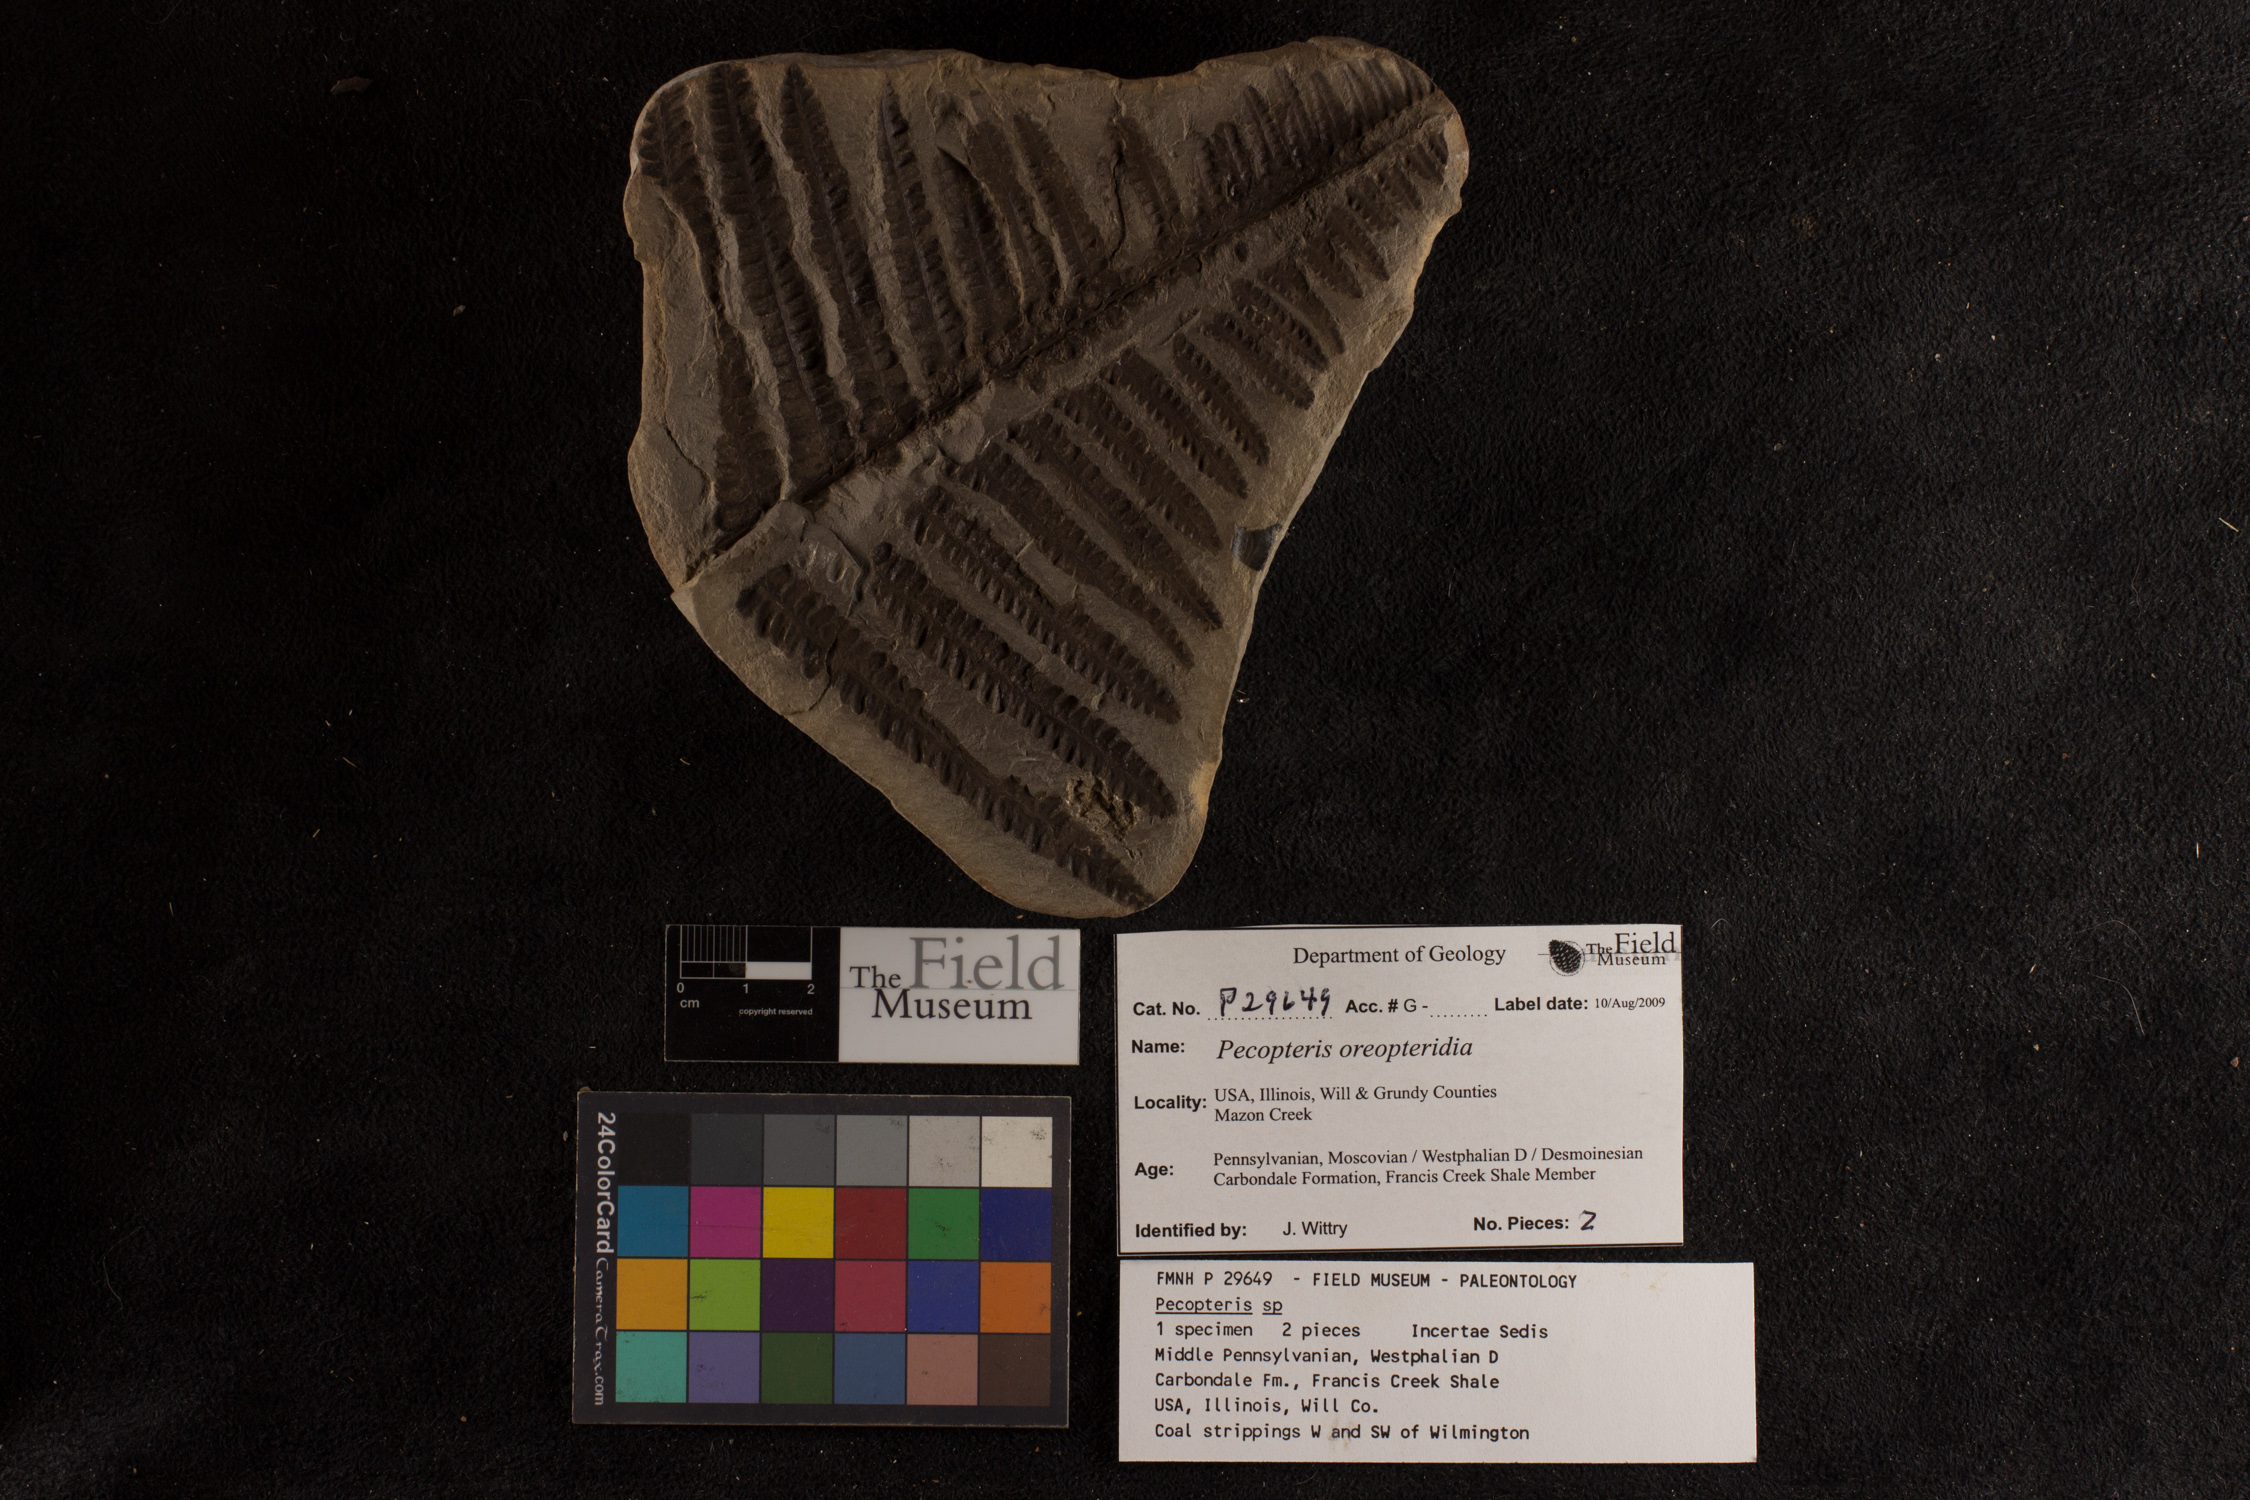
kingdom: Plantae
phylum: Tracheophyta
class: Polypodiopsida
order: Marattiales
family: Asterothecaceae
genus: Pecopteris
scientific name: Pecopteris
